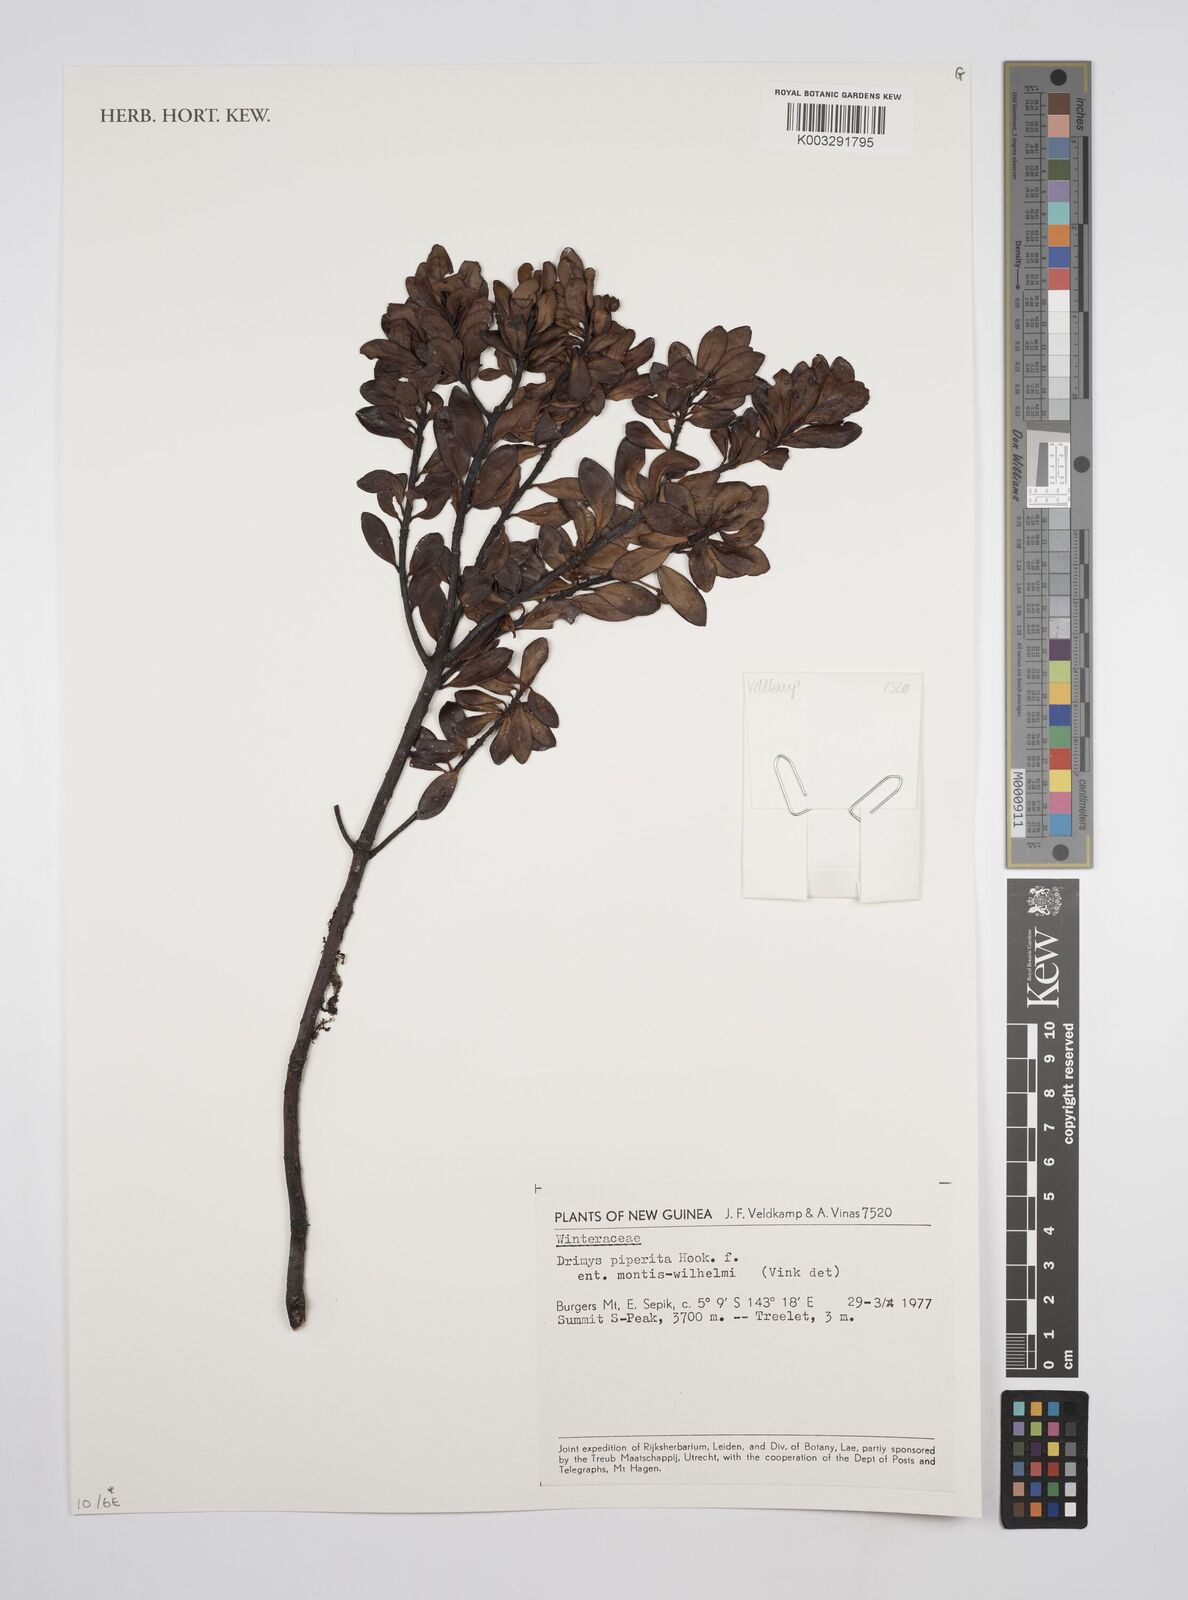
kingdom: Plantae
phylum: Tracheophyta
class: Magnoliopsida
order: Canellales
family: Winteraceae
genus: Drimys
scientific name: Drimys piperita
